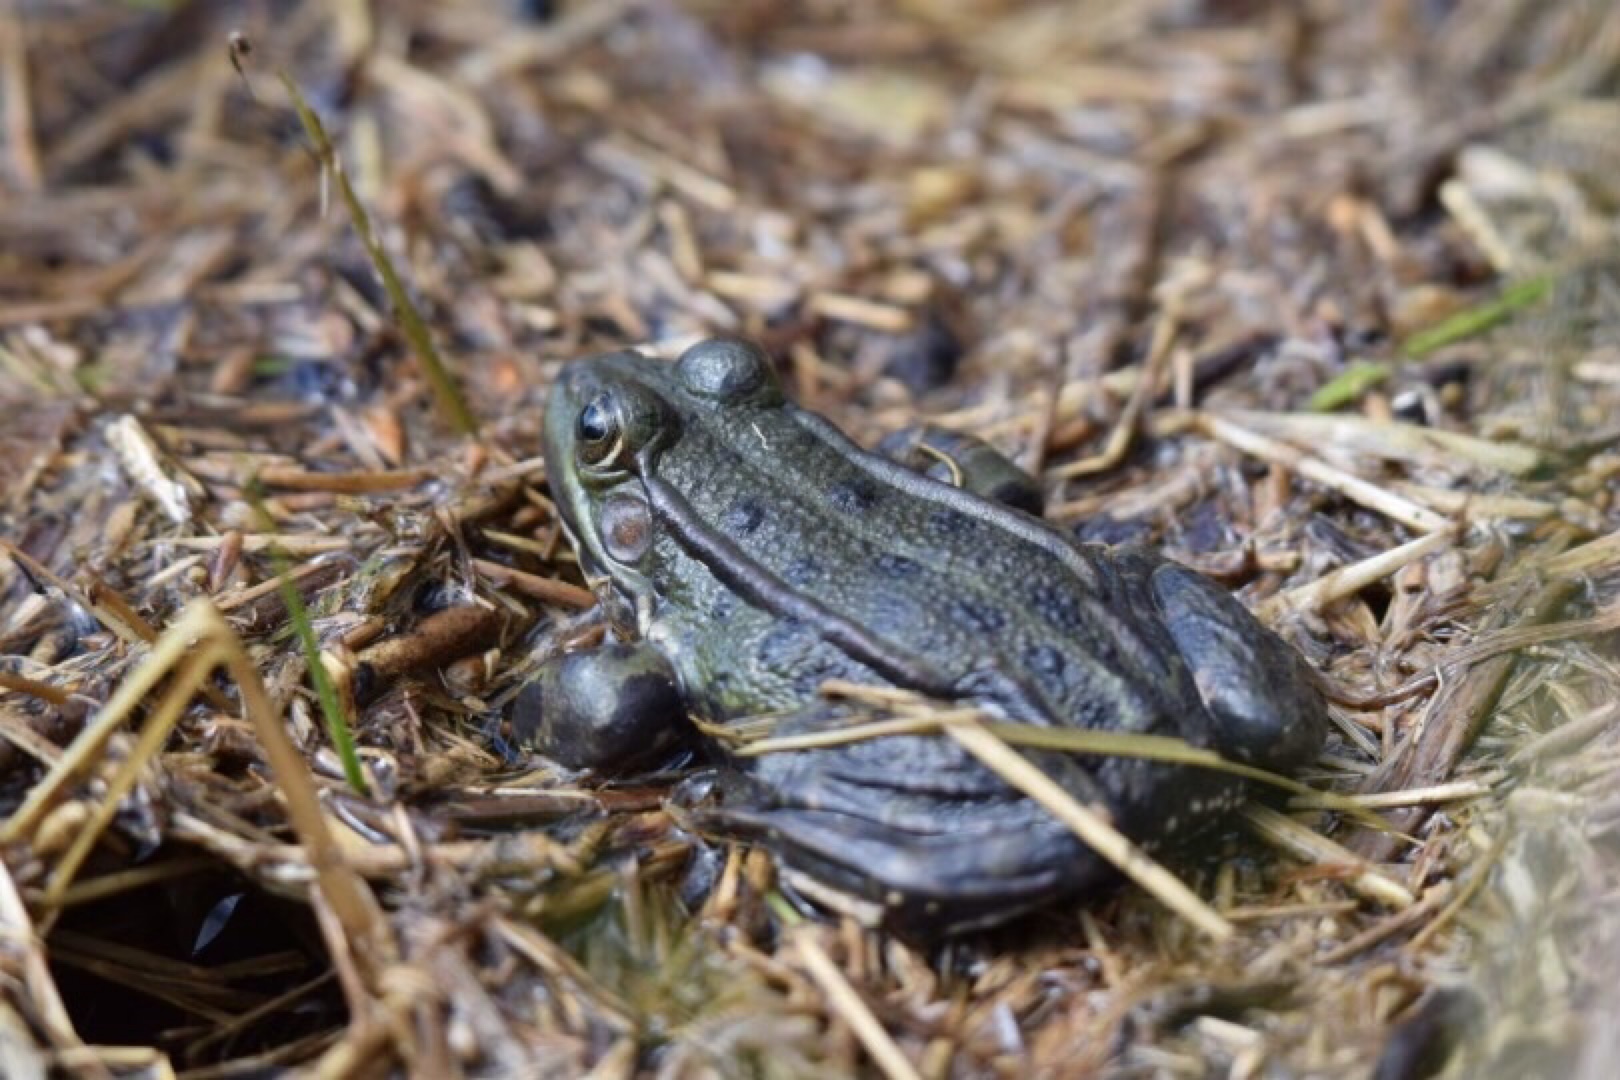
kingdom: Animalia
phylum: Chordata
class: Amphibia
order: Anura
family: Ranidae
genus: Pelophylax
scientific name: Pelophylax lessonae
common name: Grøn frø
